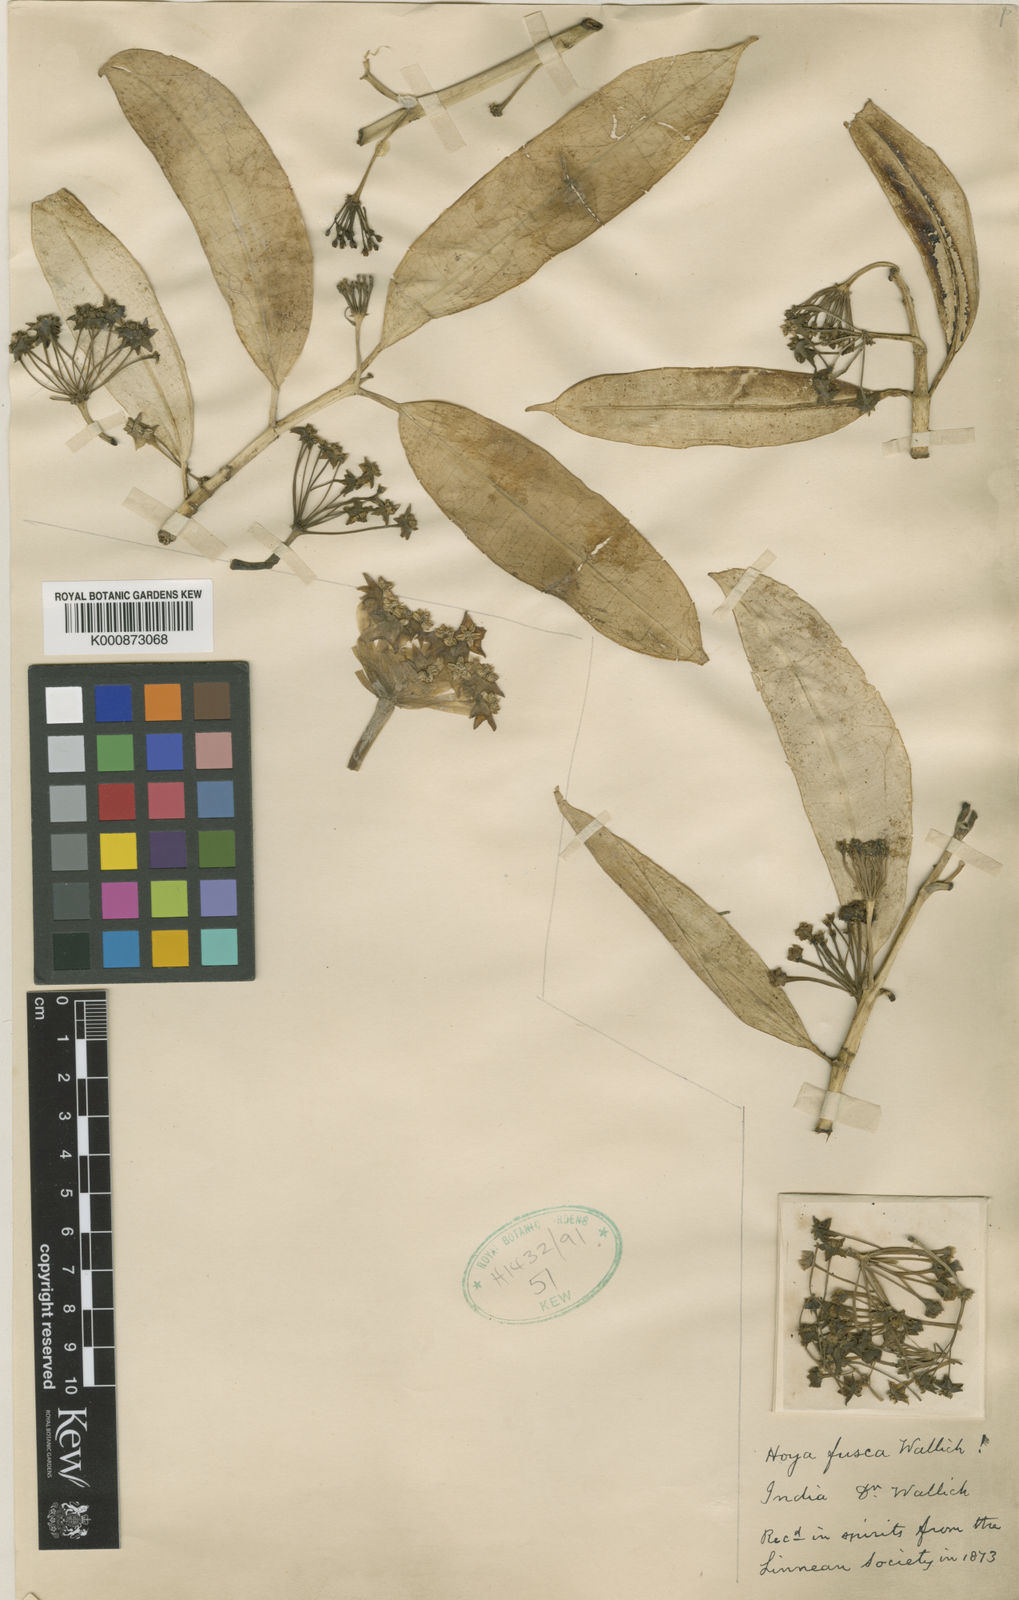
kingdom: Plantae
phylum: Tracheophyta
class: Magnoliopsida
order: Gentianales
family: Apocynaceae
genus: Hoya
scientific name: Hoya fusca
